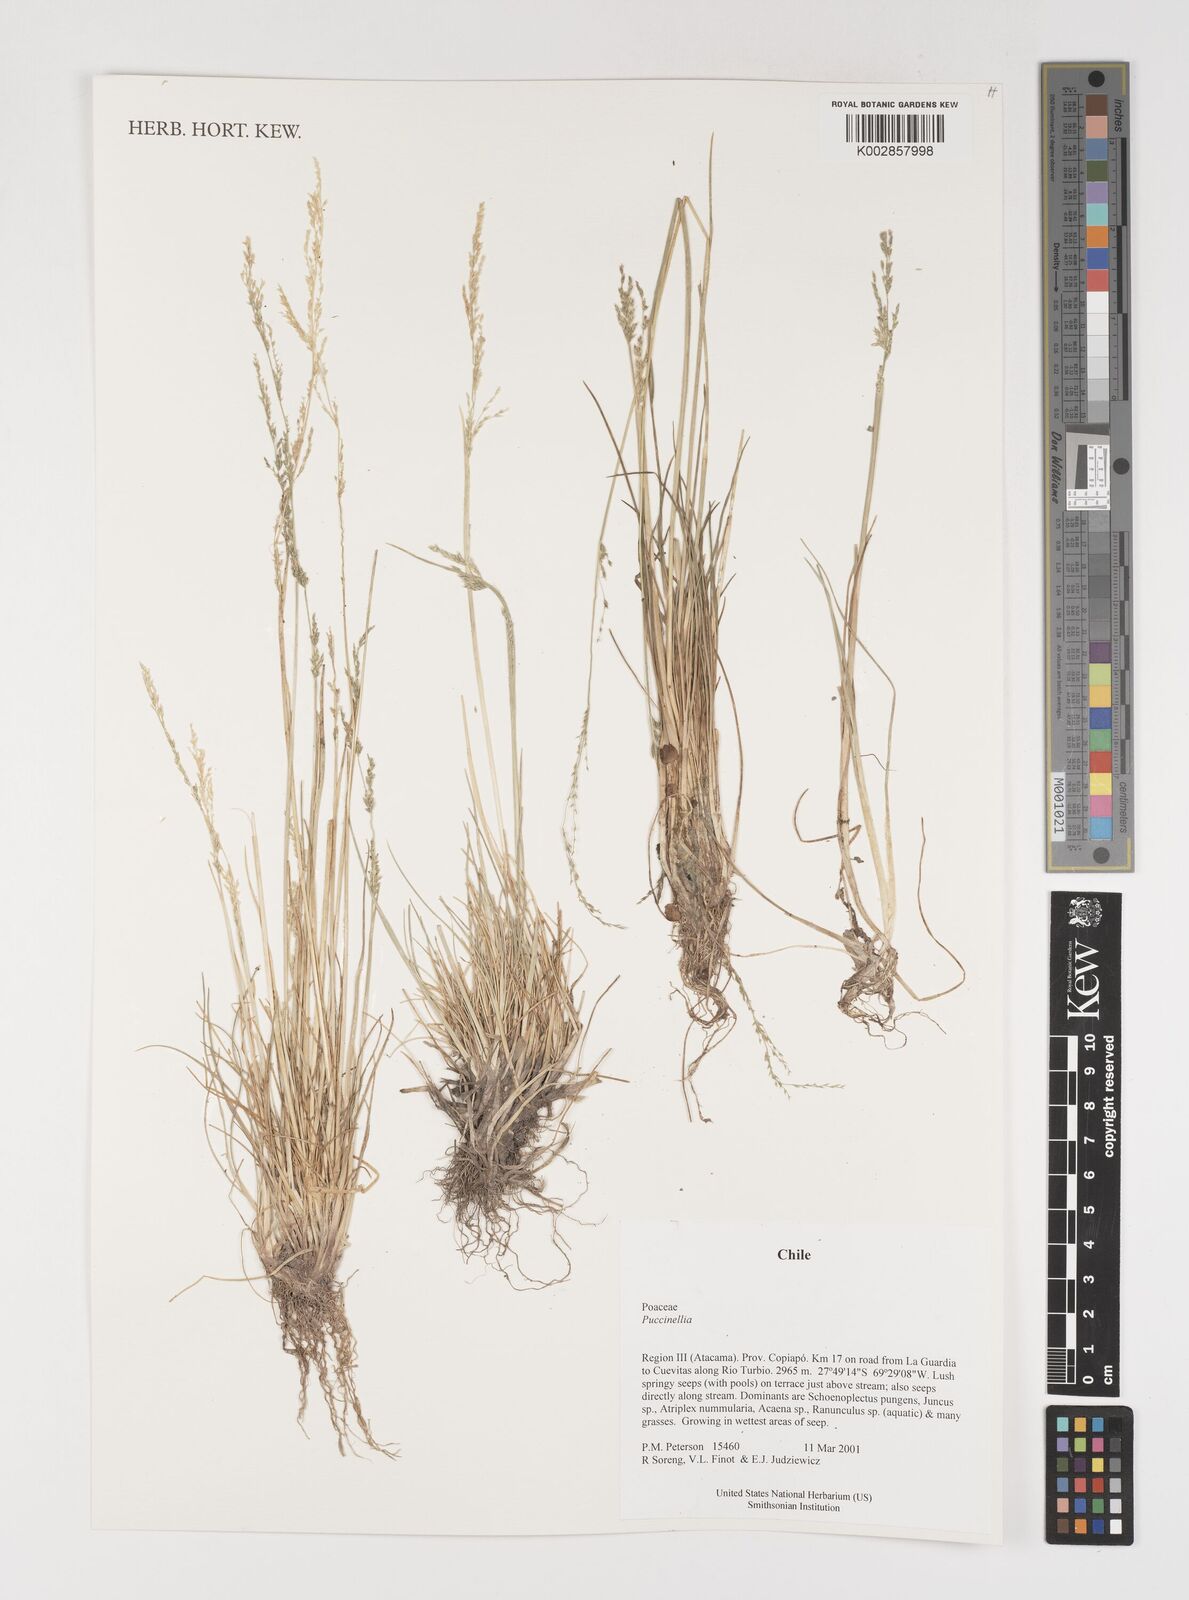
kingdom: Plantae
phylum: Tracheophyta
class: Liliopsida
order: Poales
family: Poaceae
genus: Puccinellia
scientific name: Puccinellia
